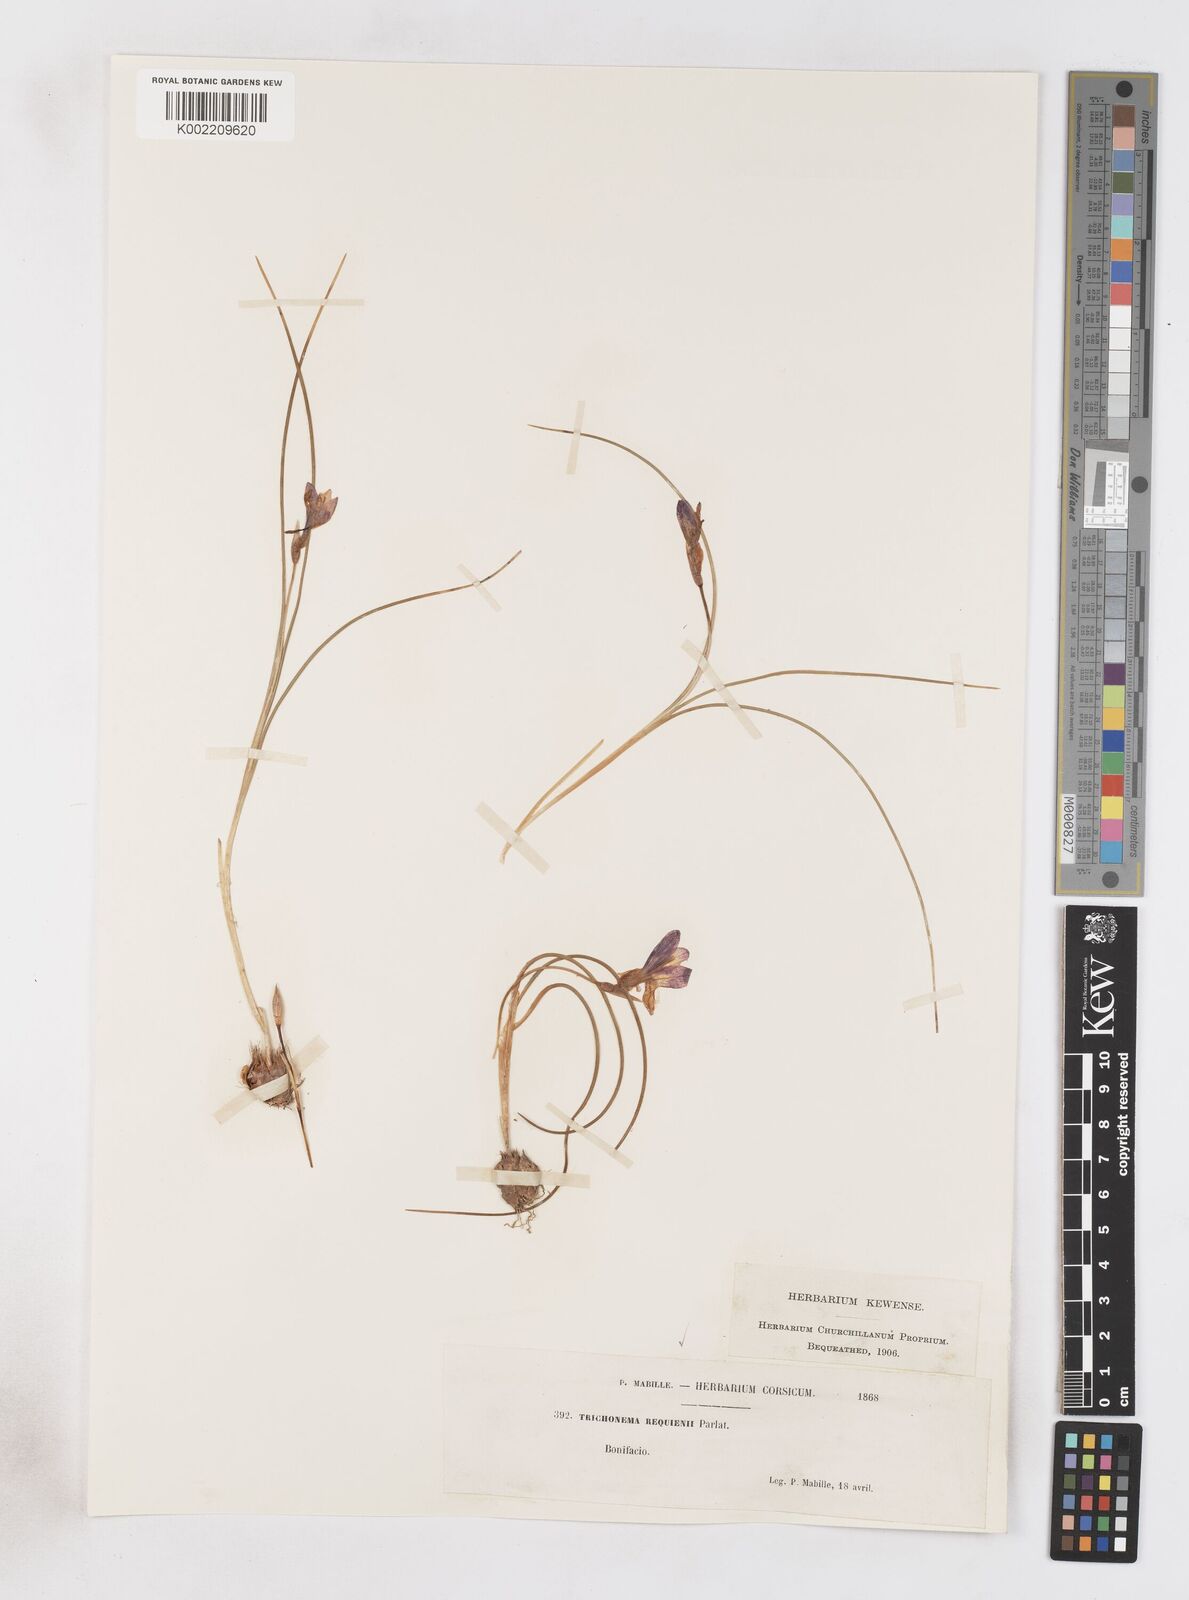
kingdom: Plantae
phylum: Tracheophyta
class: Liliopsida
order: Asparagales
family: Iridaceae
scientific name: Iridaceae
